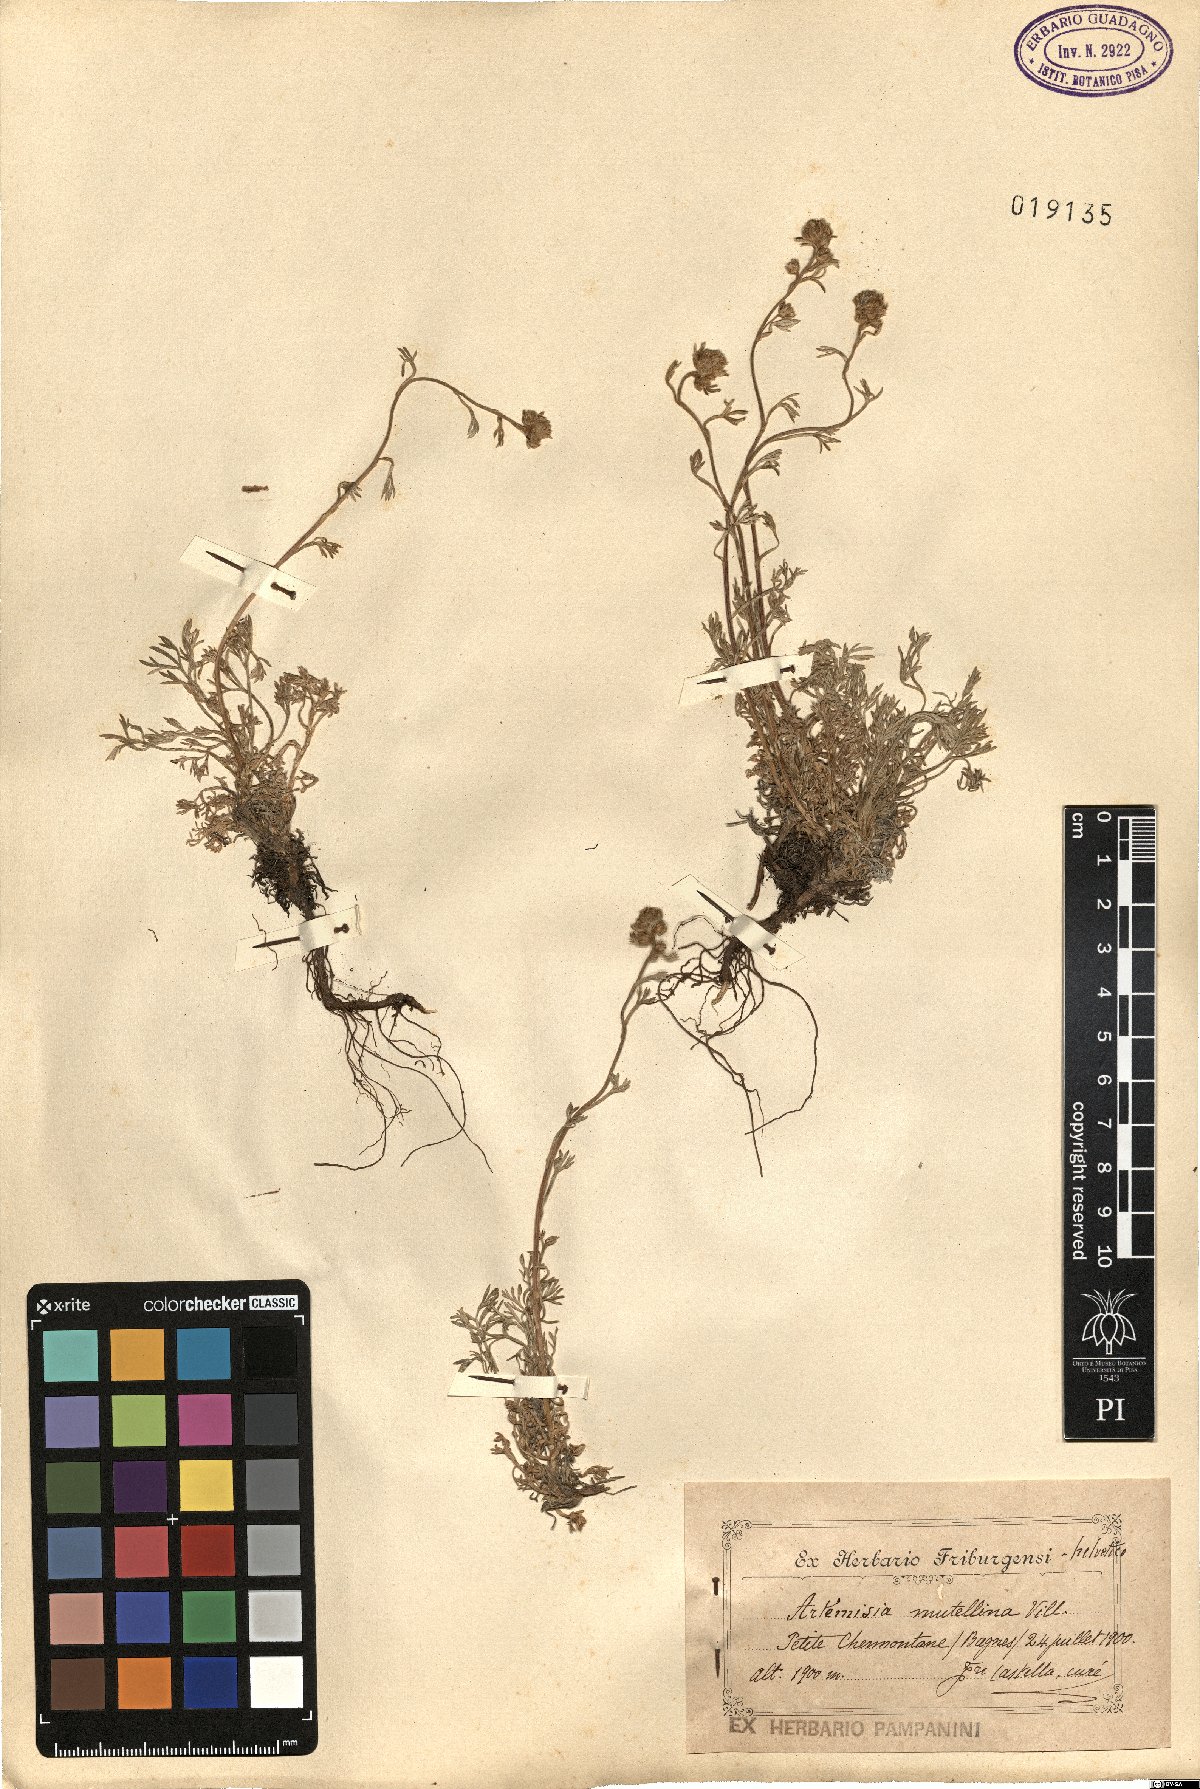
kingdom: Plantae
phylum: Tracheophyta
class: Magnoliopsida
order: Asterales
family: Asteraceae
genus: Artemisia
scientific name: Artemisia mutellina
